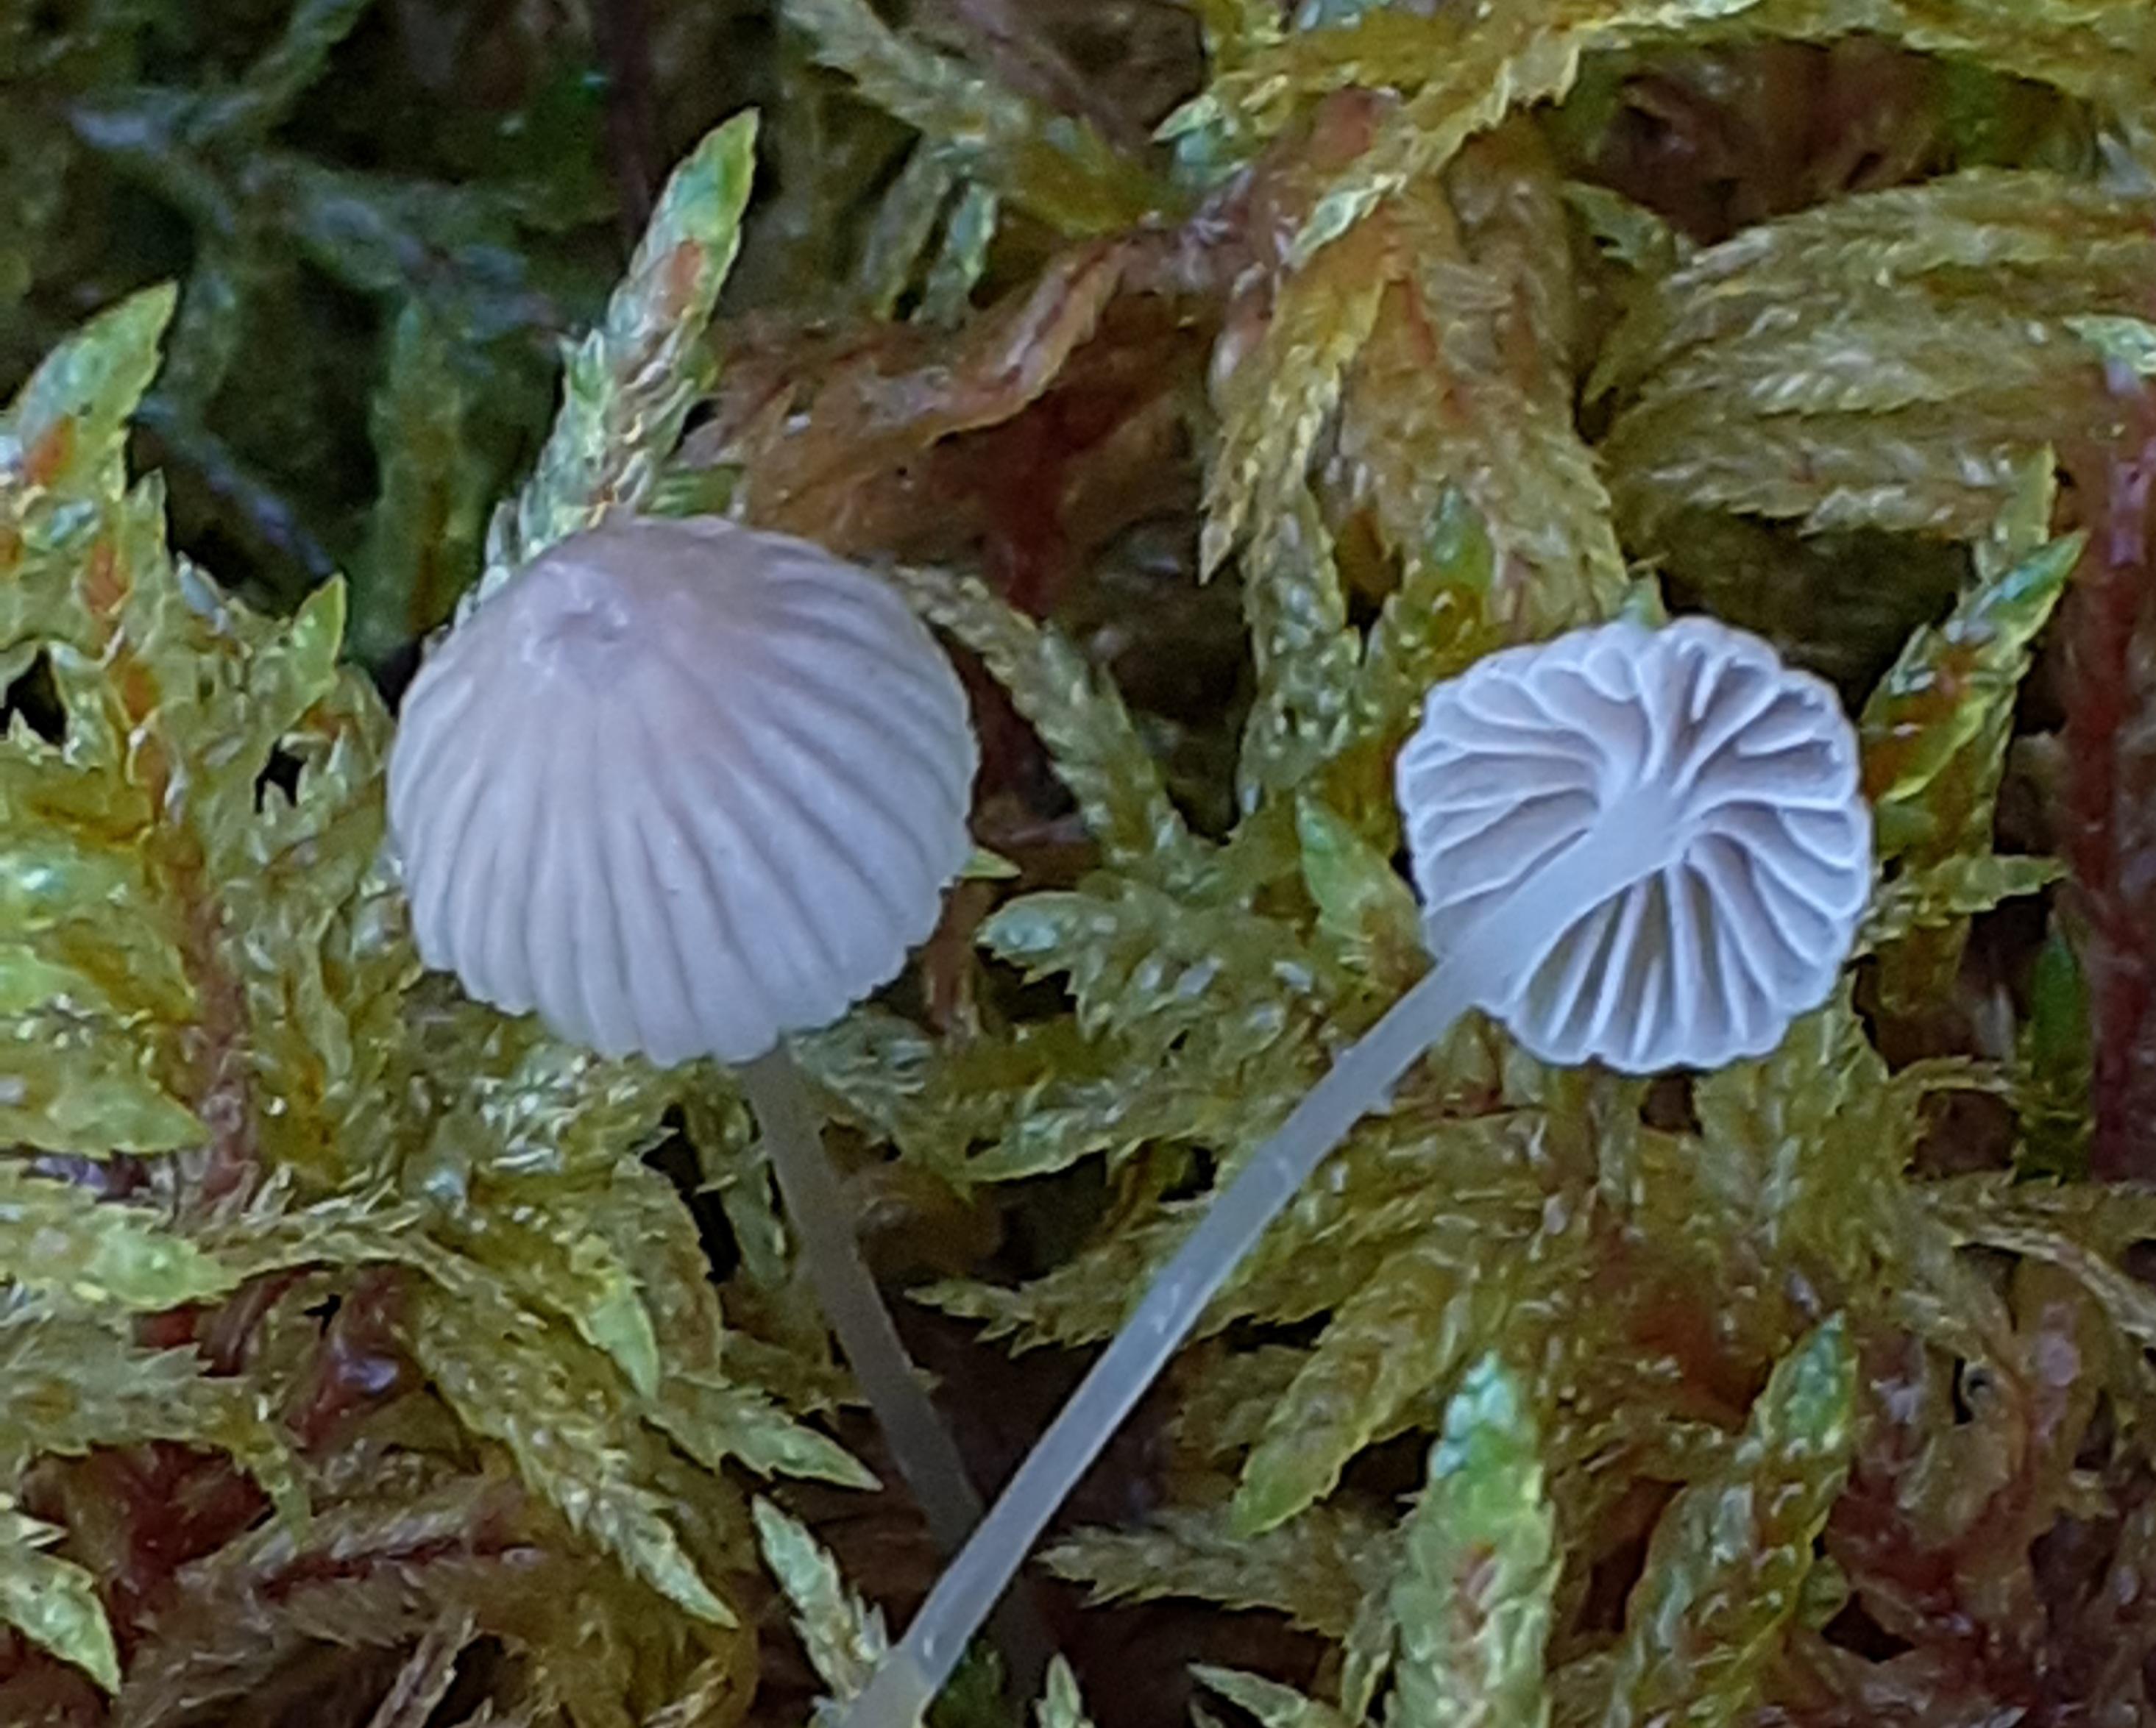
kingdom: Fungi
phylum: Basidiomycota
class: Agaricomycetes
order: Agaricales
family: Mycenaceae
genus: Mycena
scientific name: Mycena cinerella
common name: mel-huesvamp
